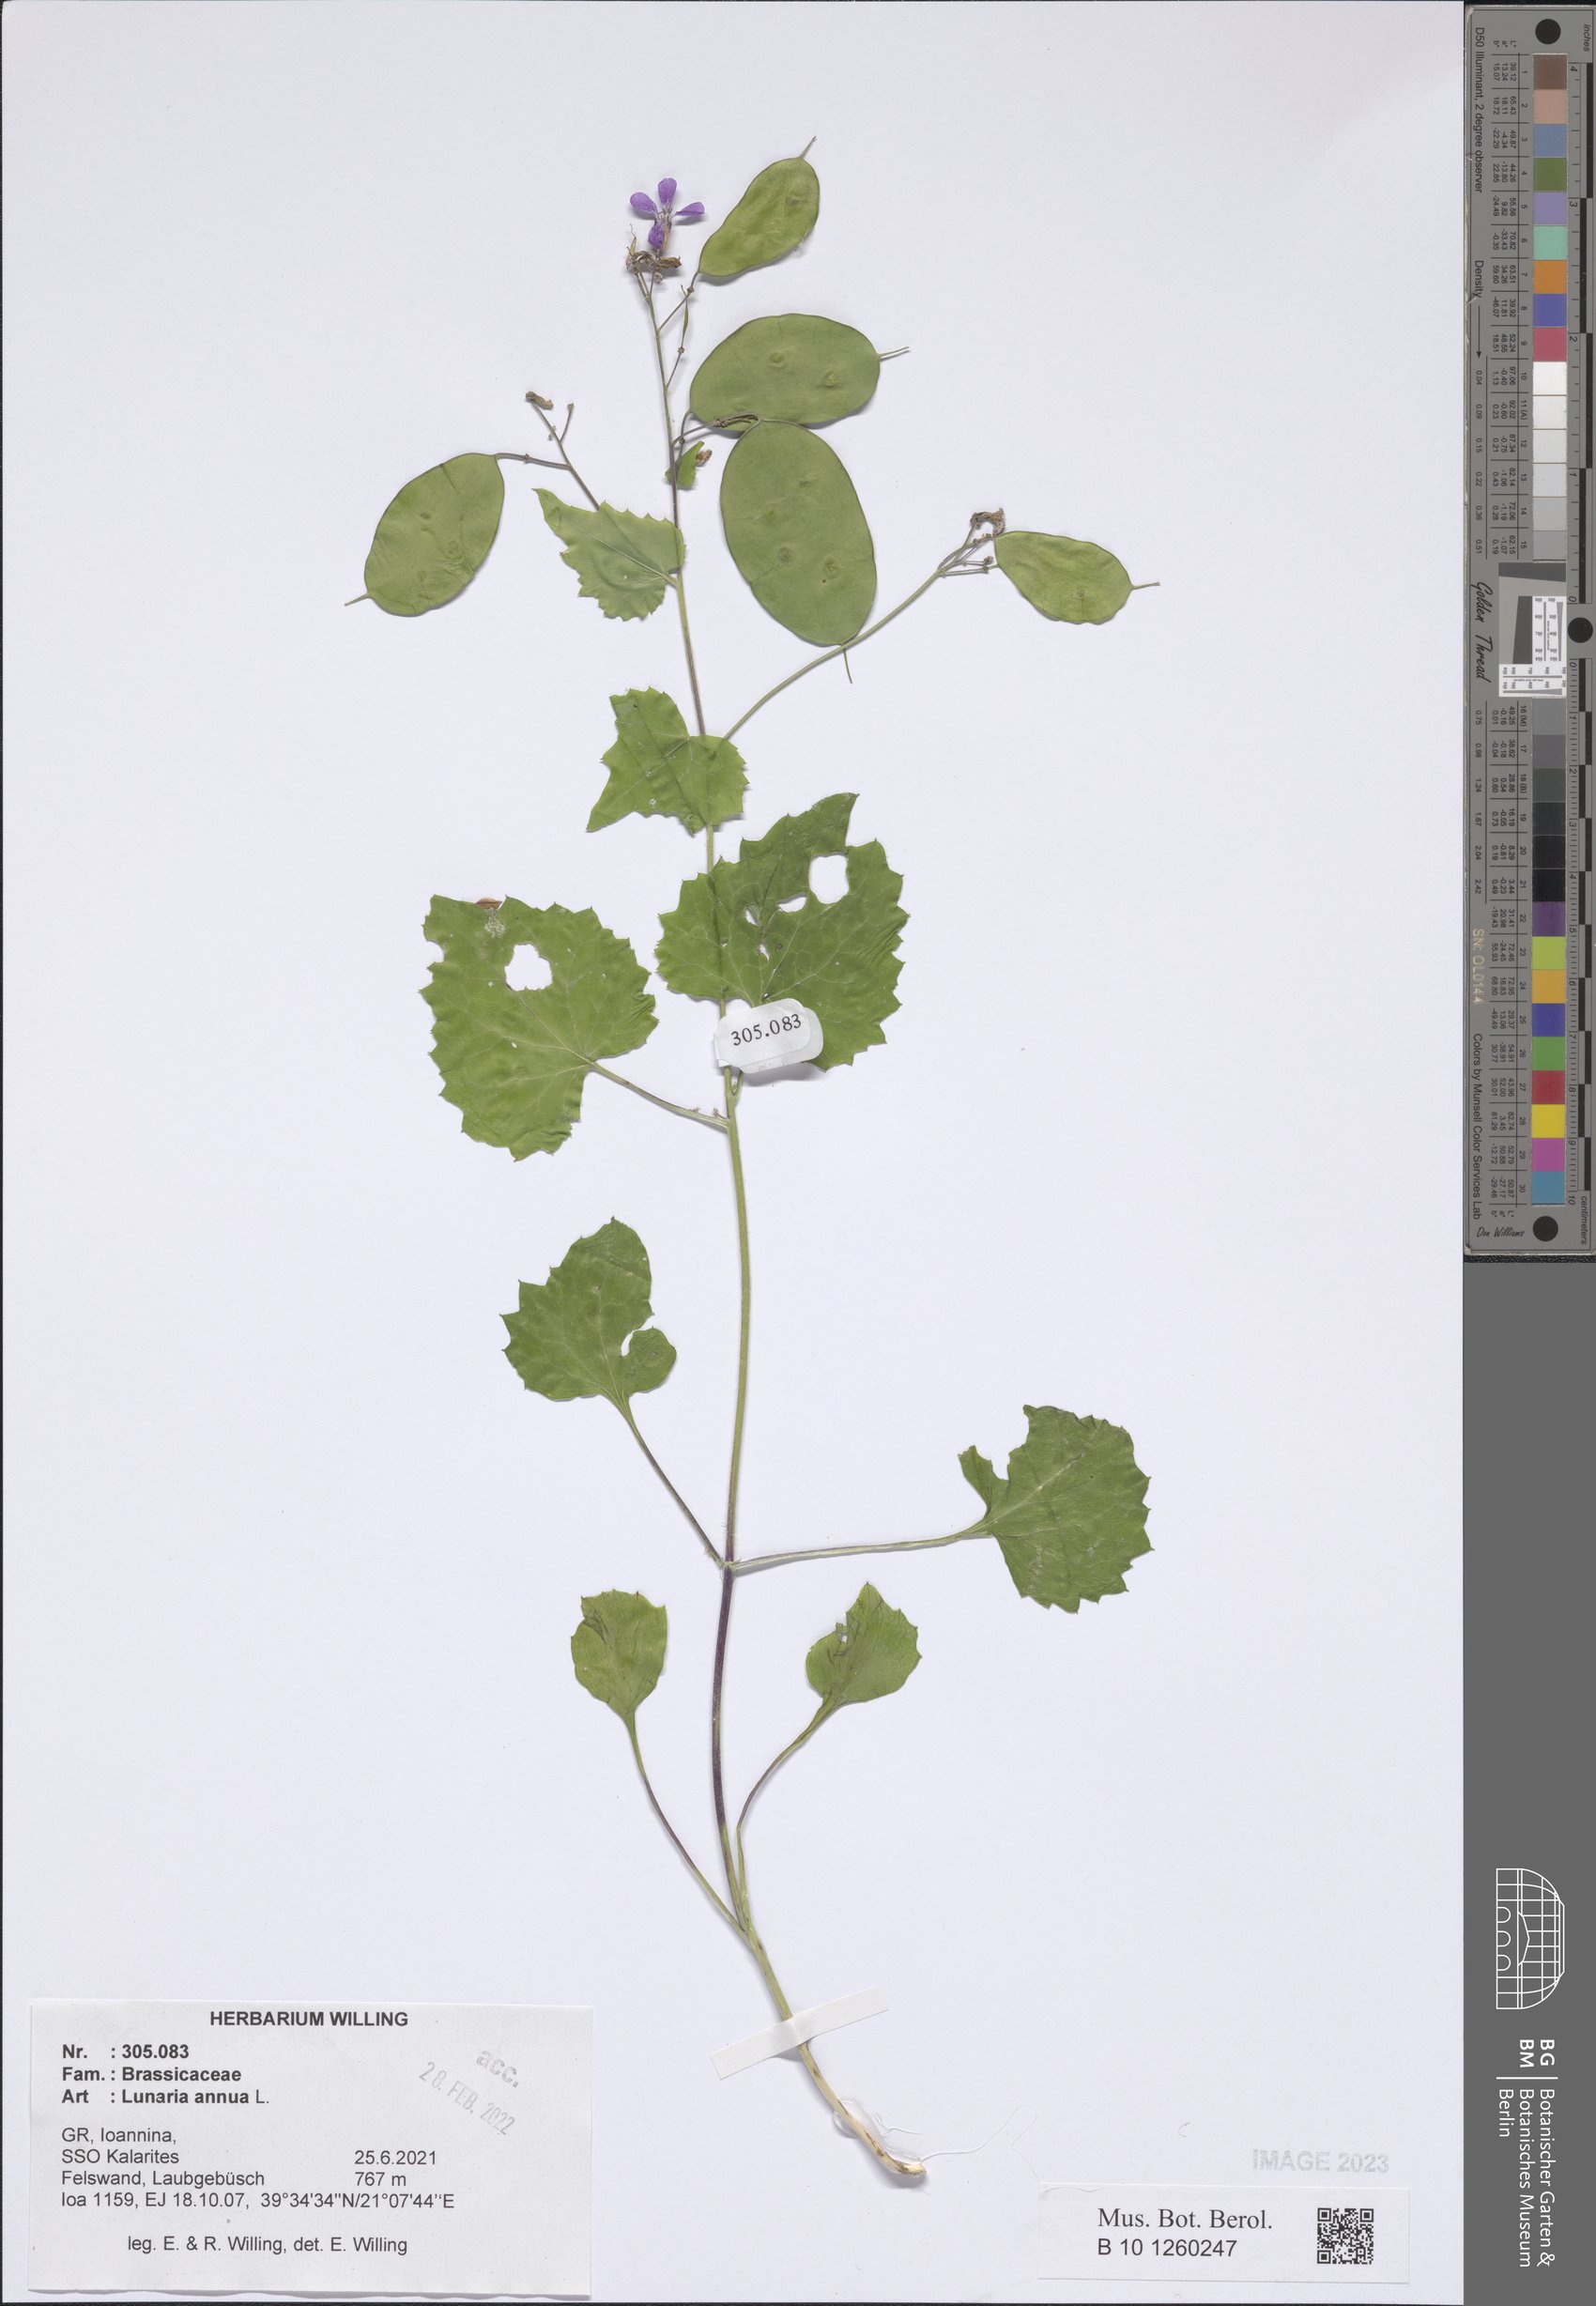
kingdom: Plantae
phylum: Tracheophyta
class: Magnoliopsida
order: Brassicales
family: Brassicaceae
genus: Lunaria
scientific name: Lunaria annua
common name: Honesty
